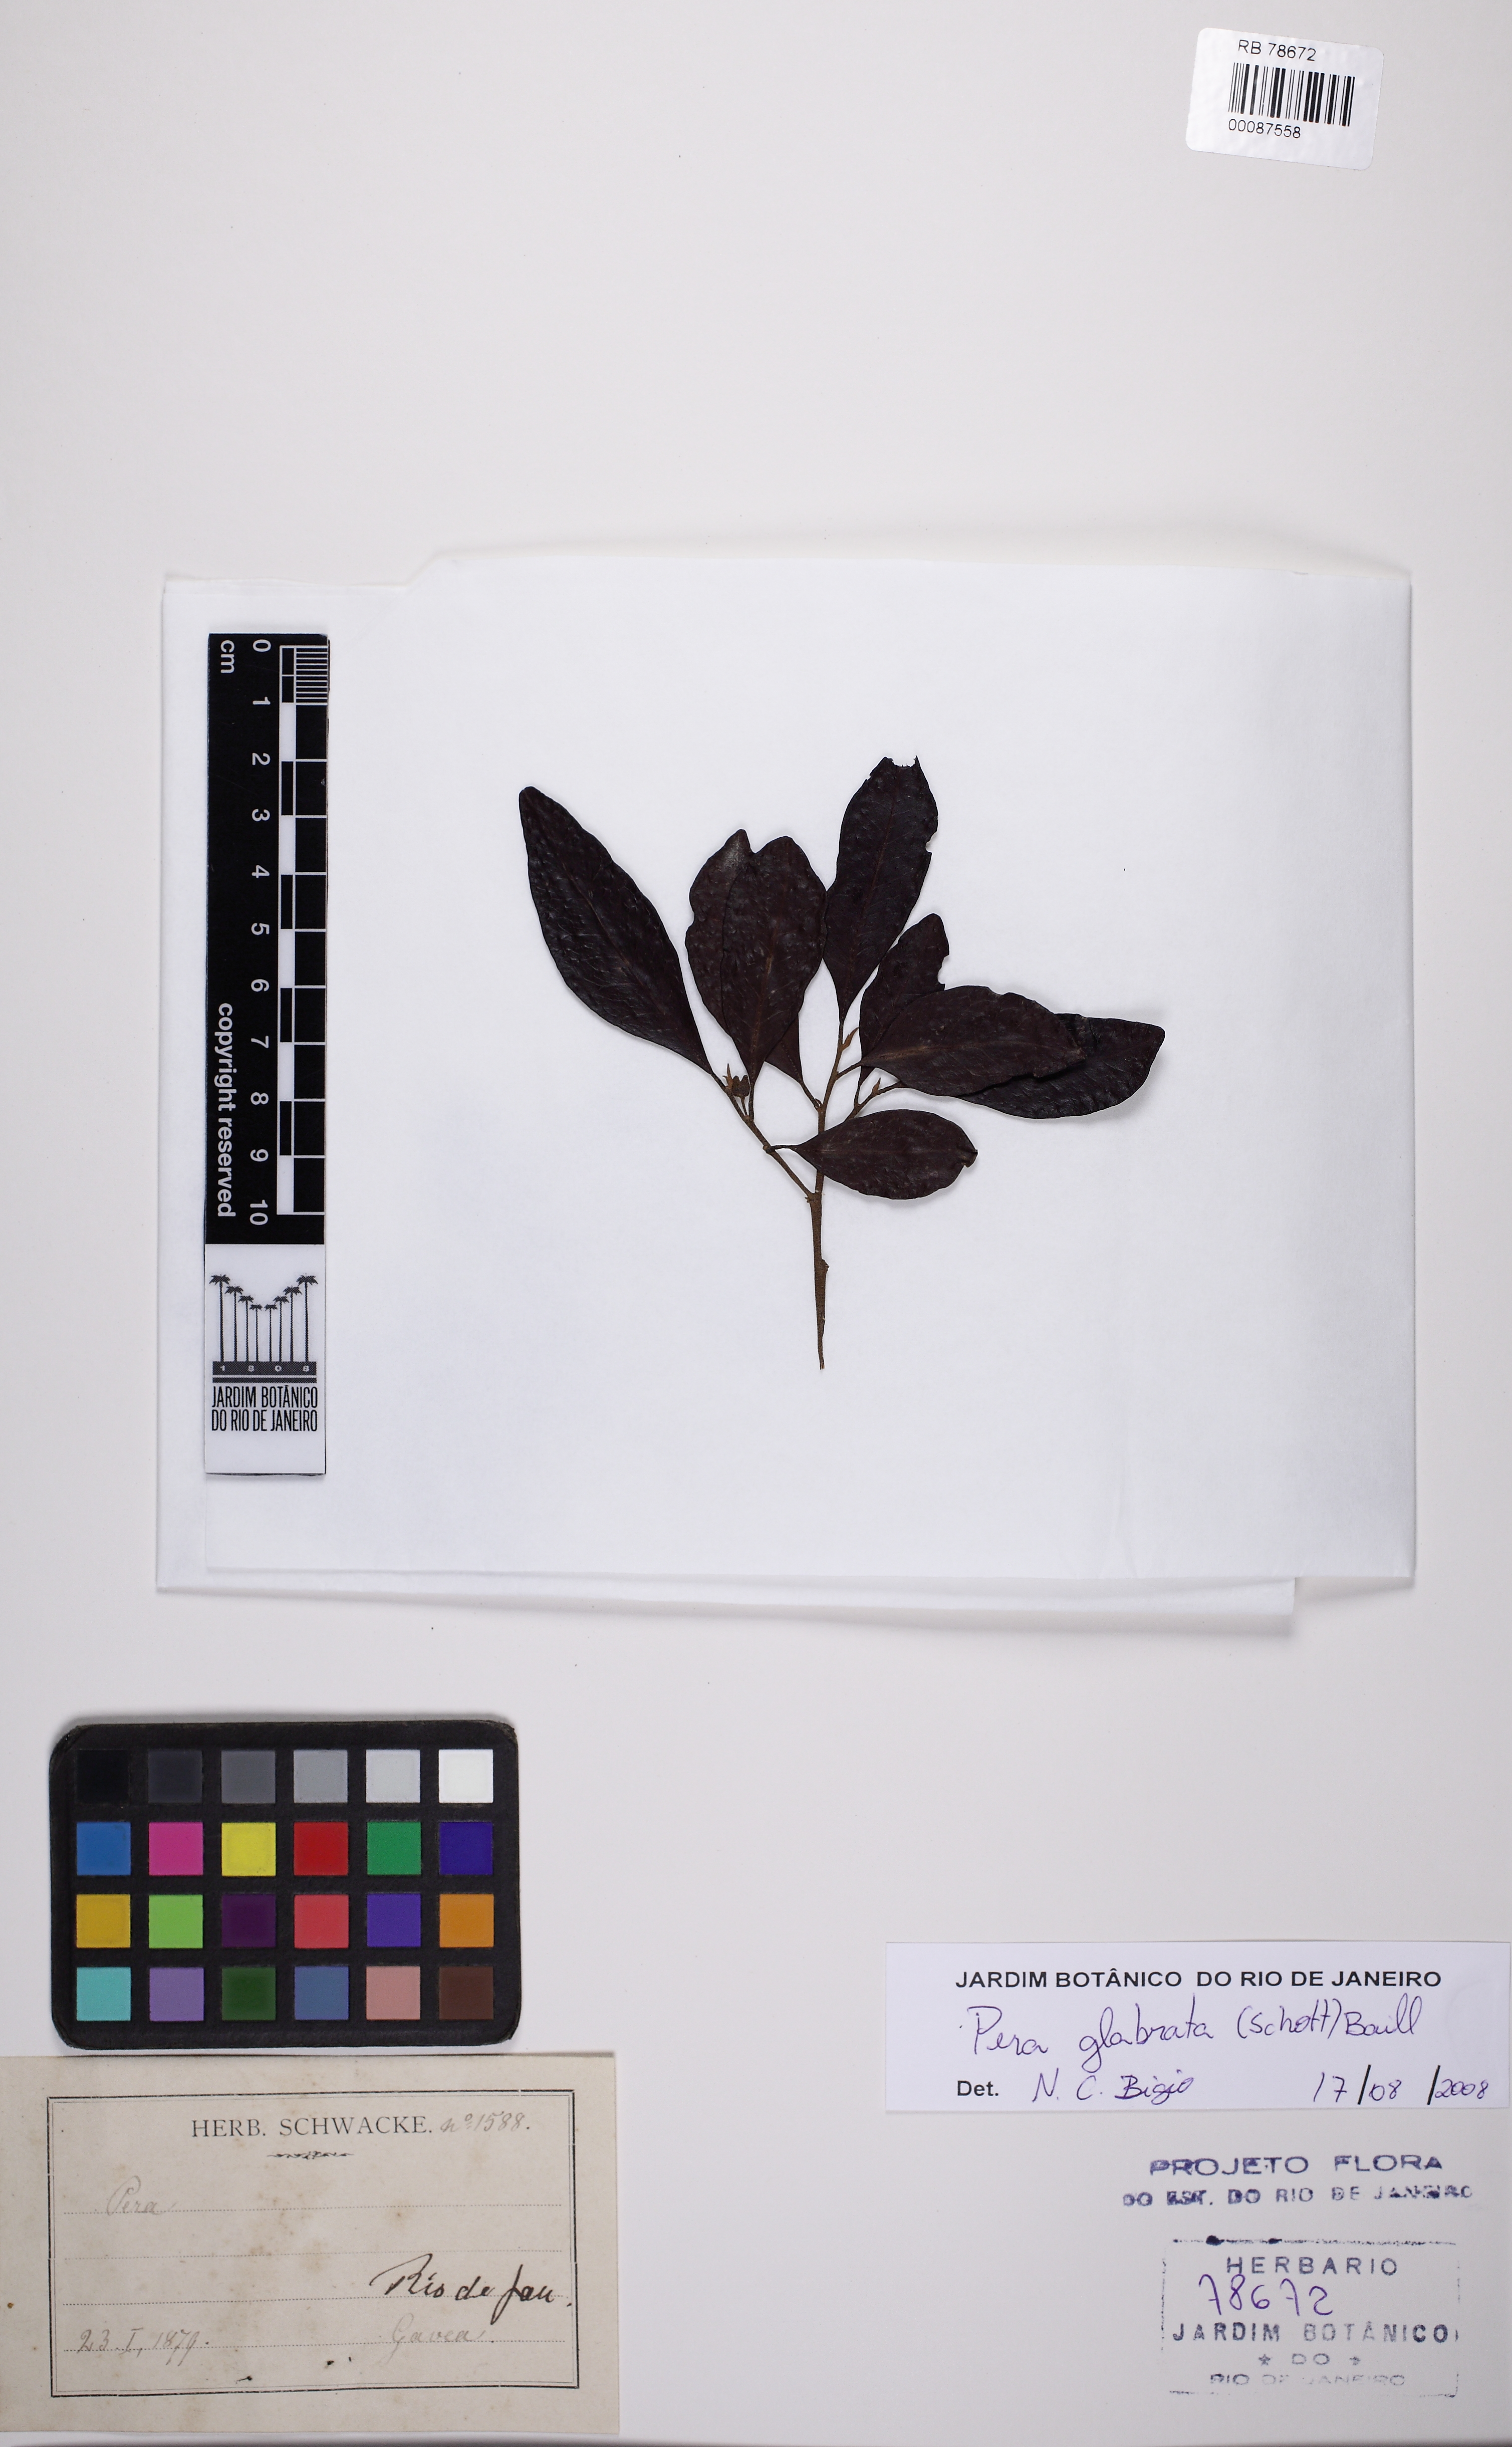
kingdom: Plantae
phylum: Tracheophyta
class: Magnoliopsida
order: Malpighiales
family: Peraceae
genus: Pera
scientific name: Pera glabrata
